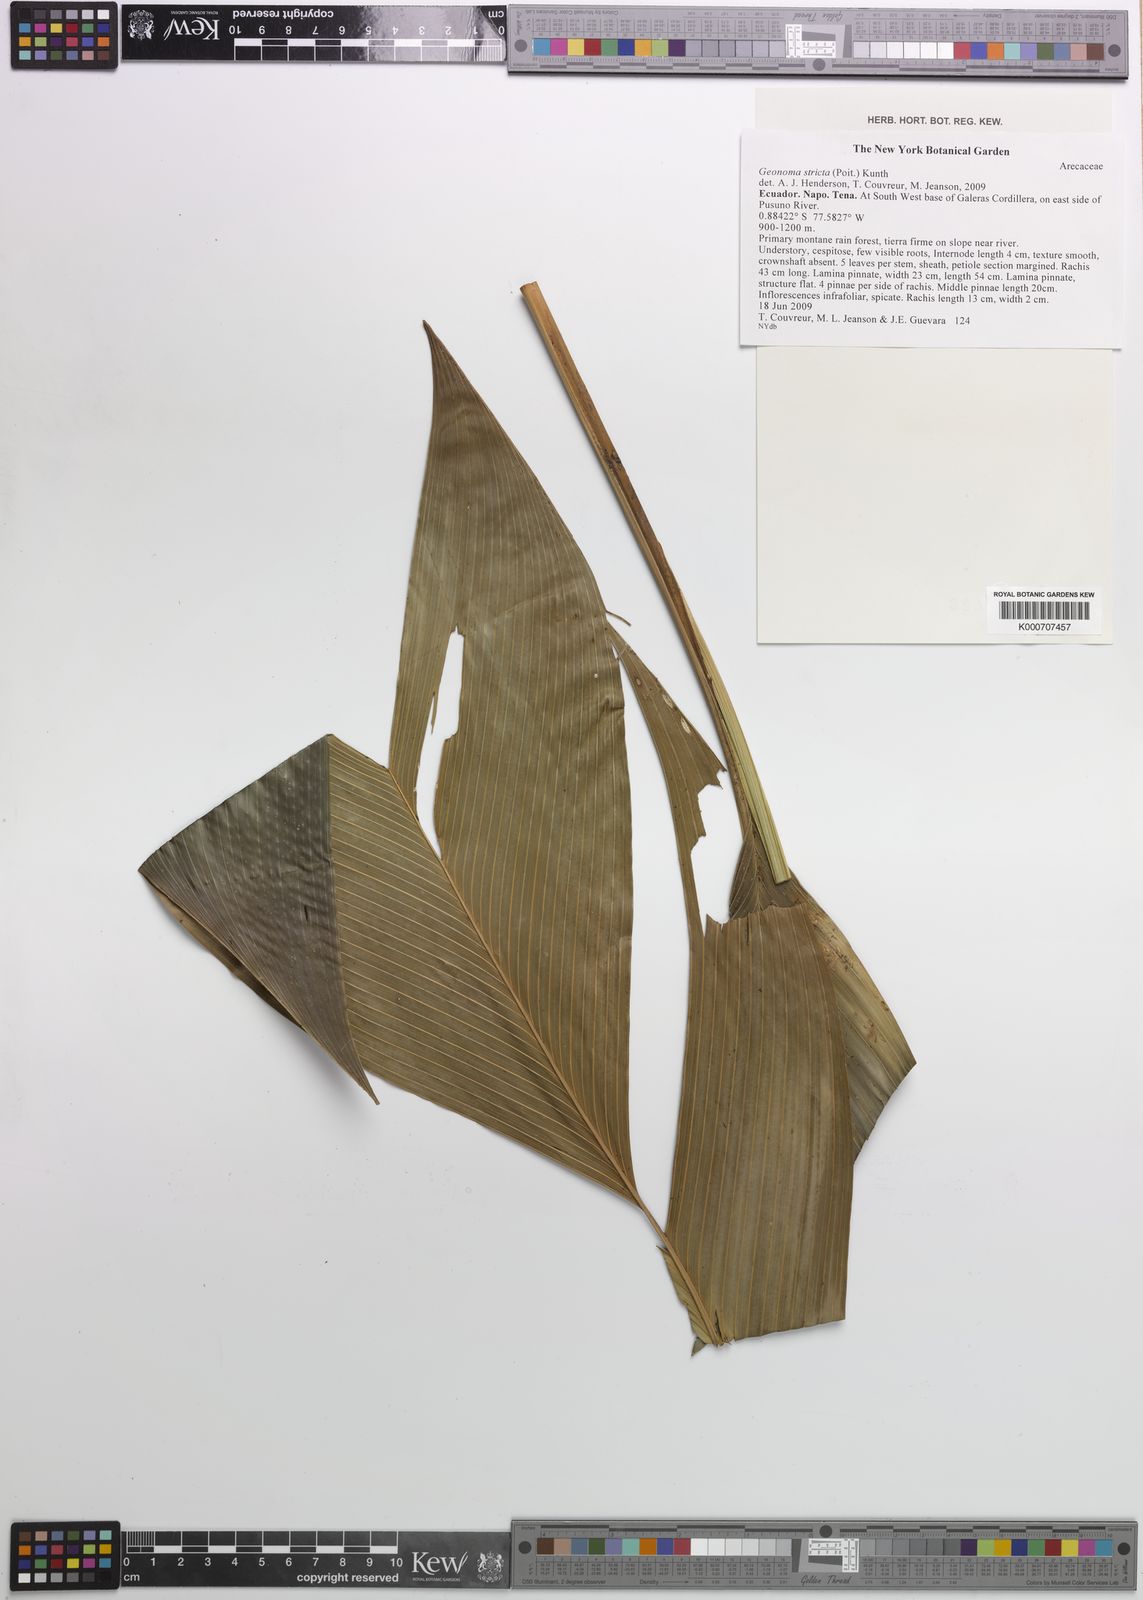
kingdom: Plantae
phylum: Tracheophyta
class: Liliopsida
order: Arecales
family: Arecaceae
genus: Geonoma
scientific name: Geonoma stricta
